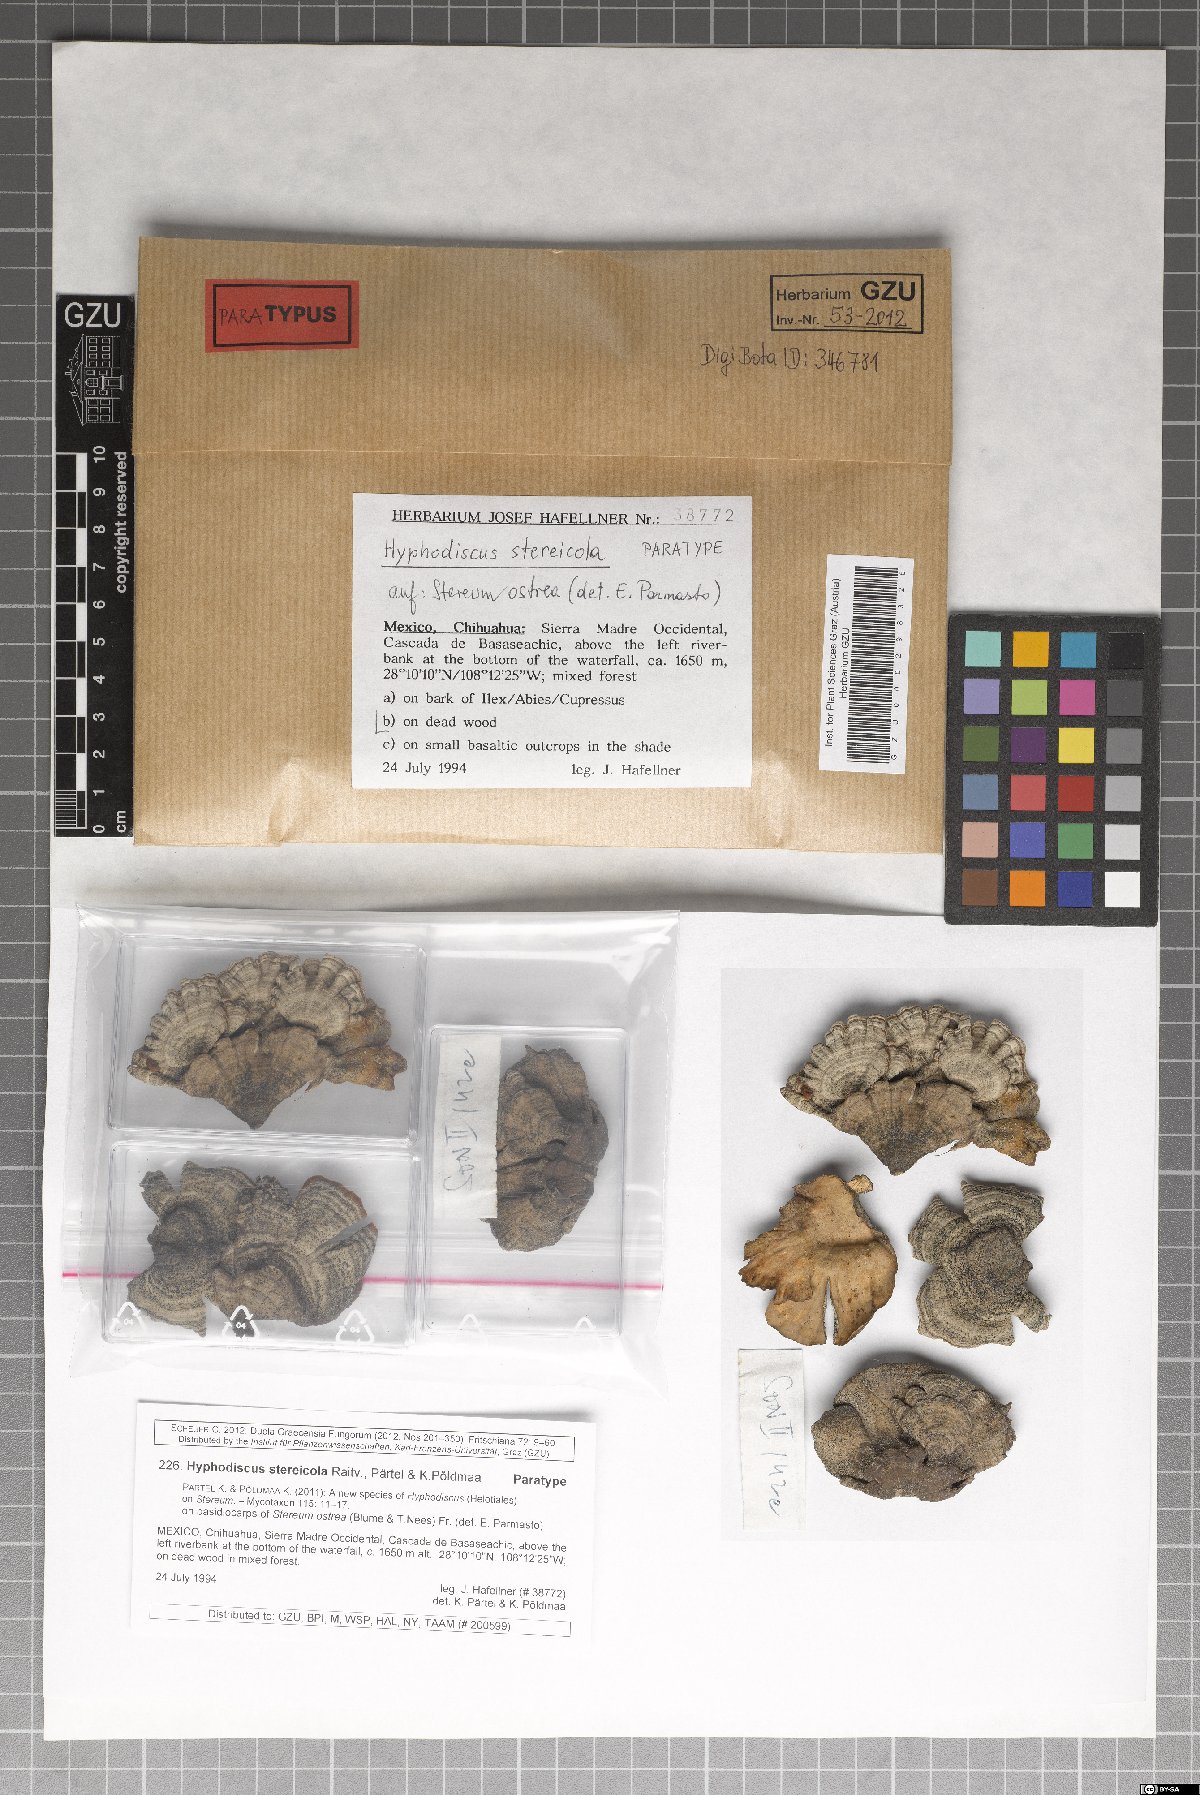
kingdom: Fungi
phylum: Ascomycota
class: Leotiomycetes
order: Helotiales
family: Hyphodiscaceae
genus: Hyphodiscus
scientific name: Hyphodiscus stereicola
